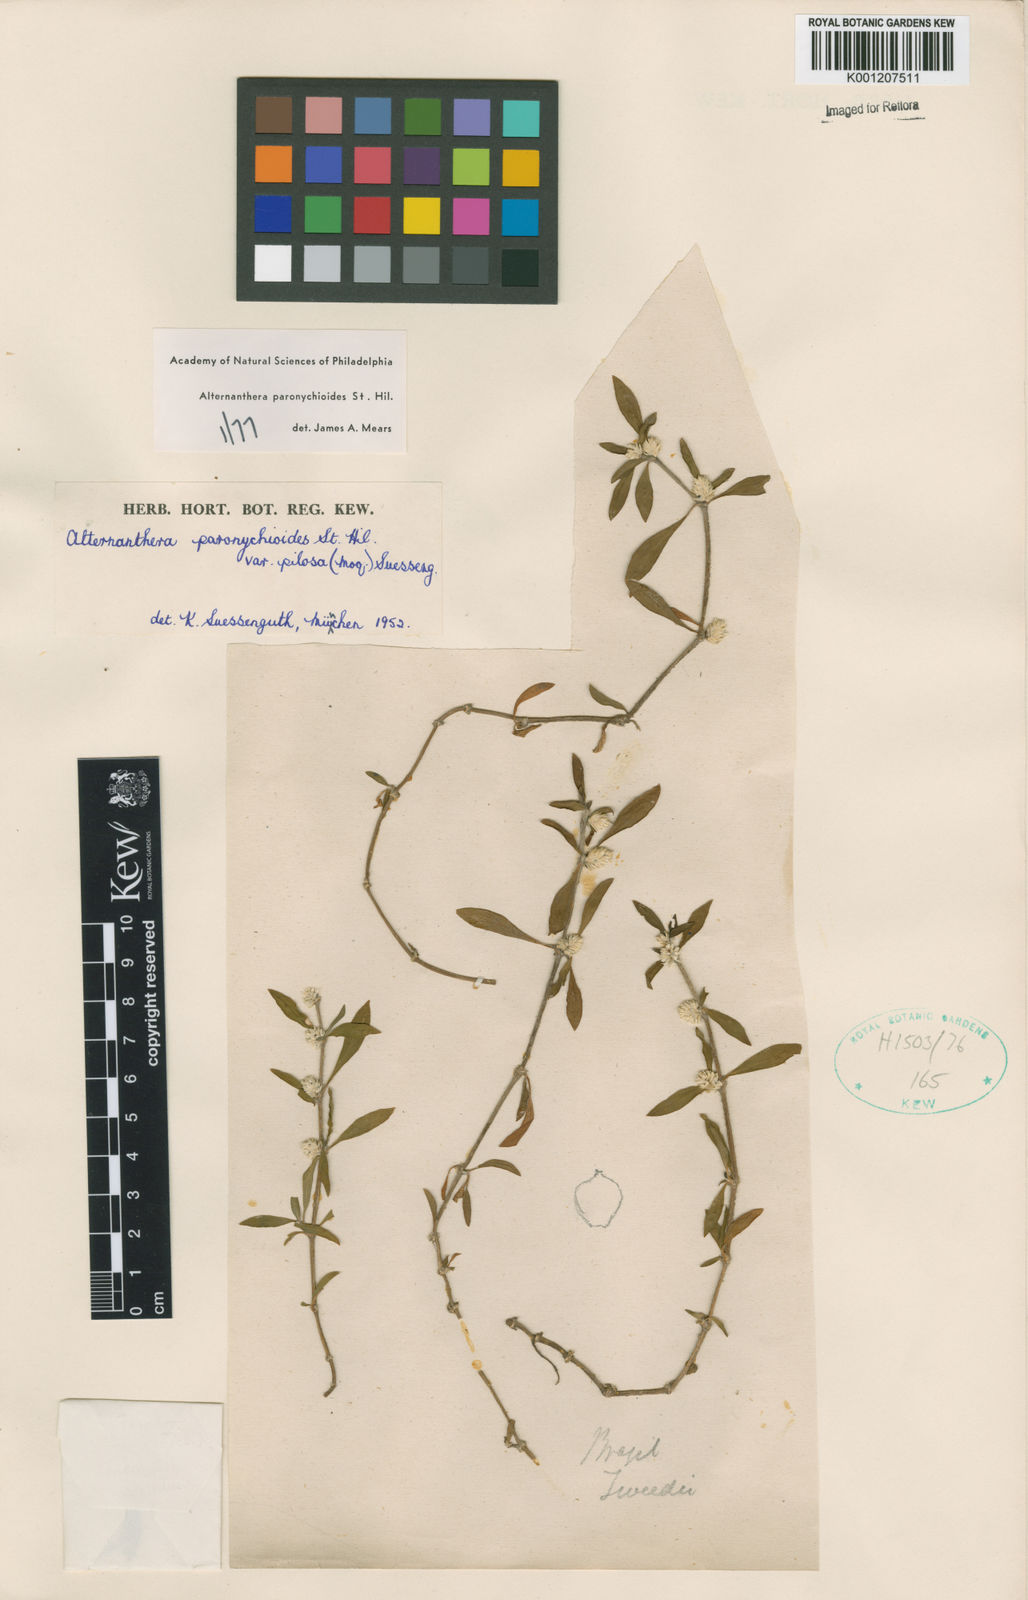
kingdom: Plantae
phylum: Tracheophyta
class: Magnoliopsida
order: Caryophyllales
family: Amaranthaceae
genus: Alternanthera
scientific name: Alternanthera paronychioides
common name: Smooth joyweed
